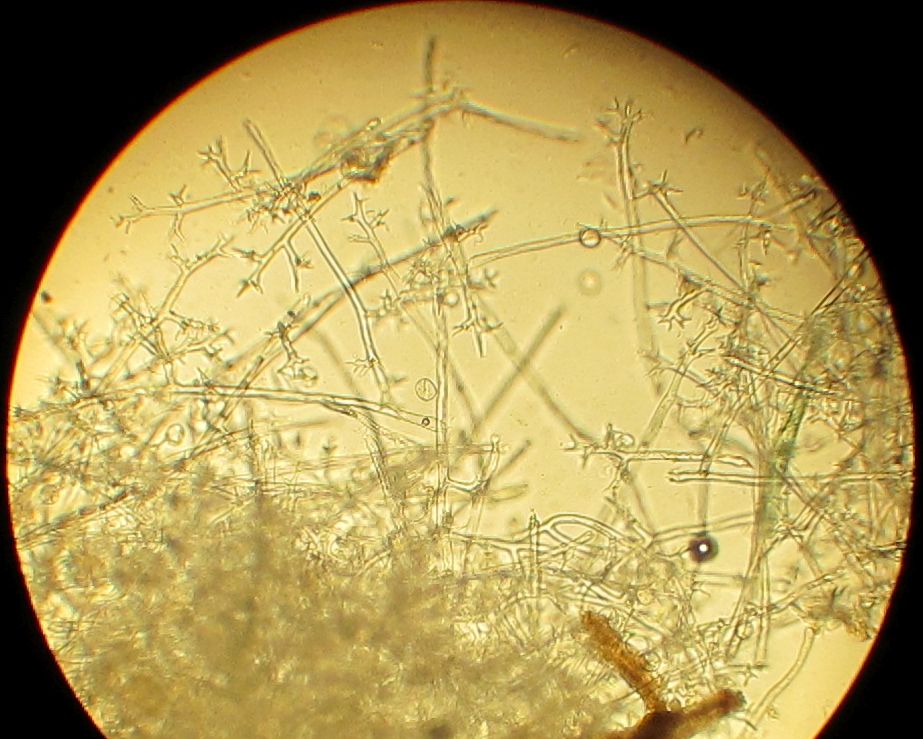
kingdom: Chromista
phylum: Oomycota
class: Peronosporea
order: Peronosporales
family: Peronosporaceae
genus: Peronospora
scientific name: Peronospora crustosa
